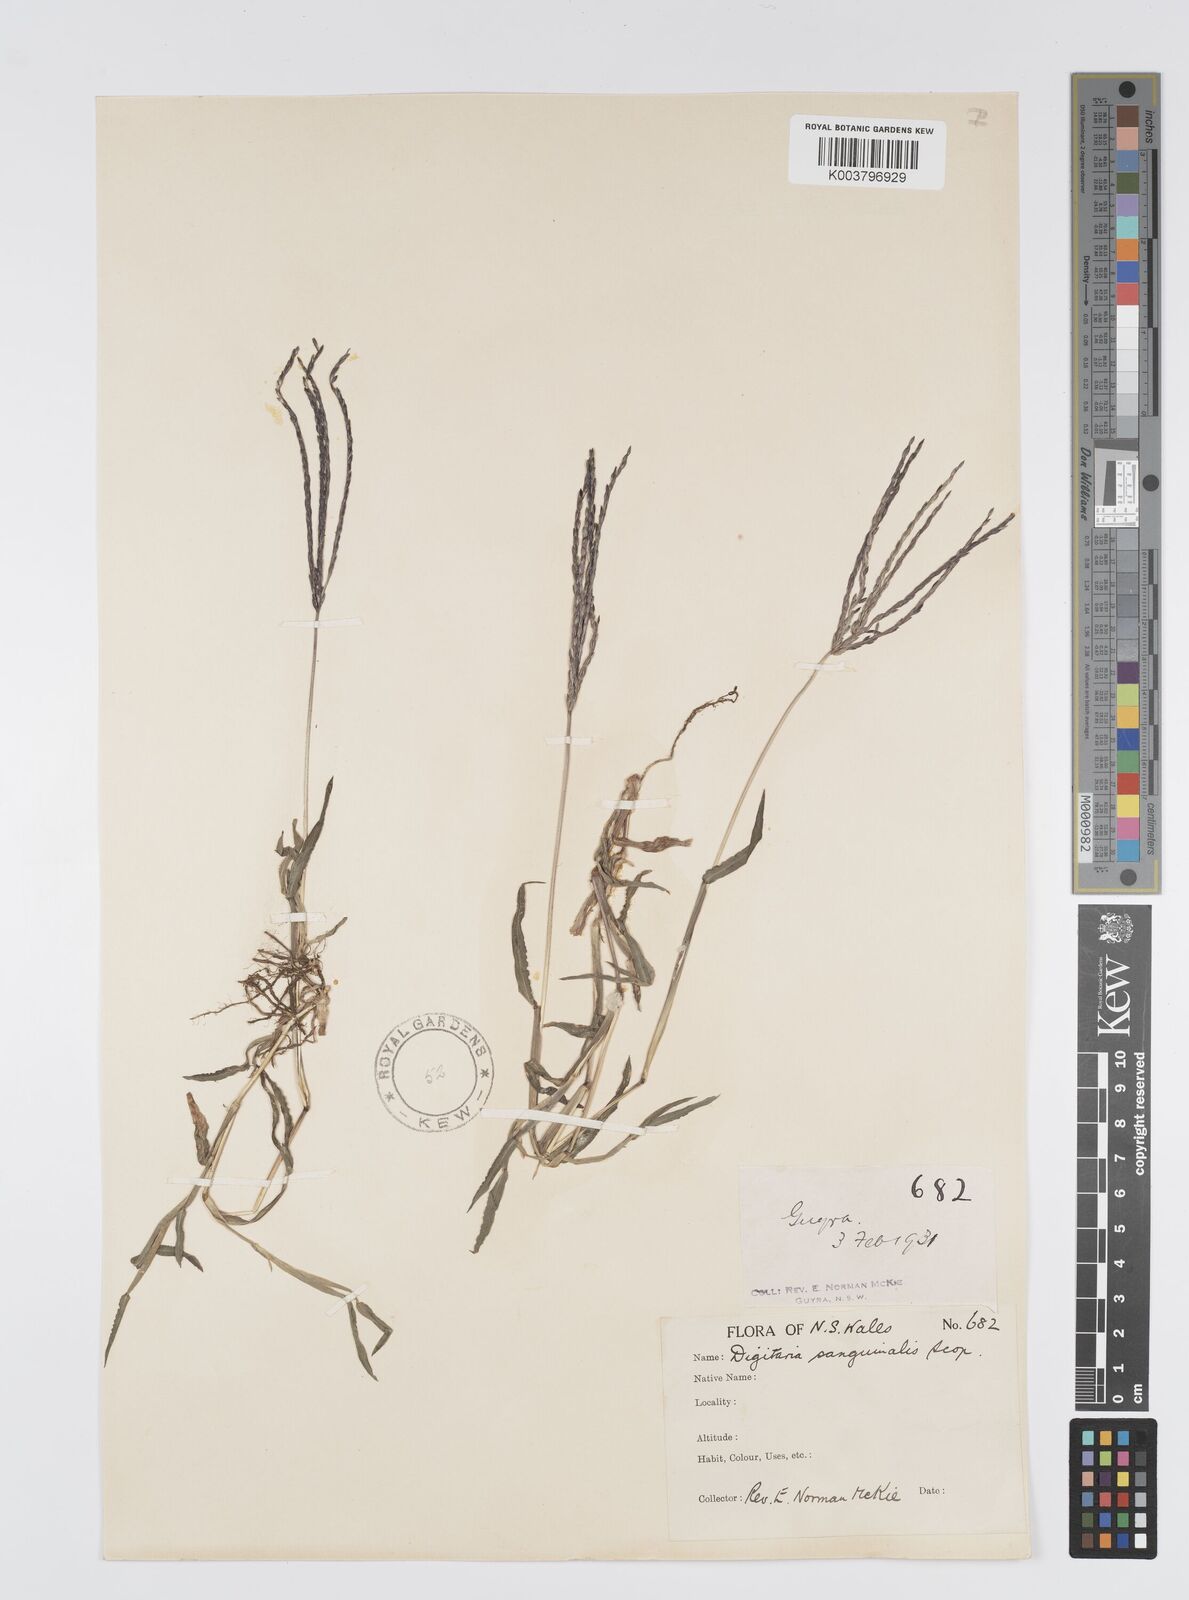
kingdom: Plantae
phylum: Tracheophyta
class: Liliopsida
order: Poales
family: Poaceae
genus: Digitaria
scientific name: Digitaria sanguinalis
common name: Hairy crabgrass
